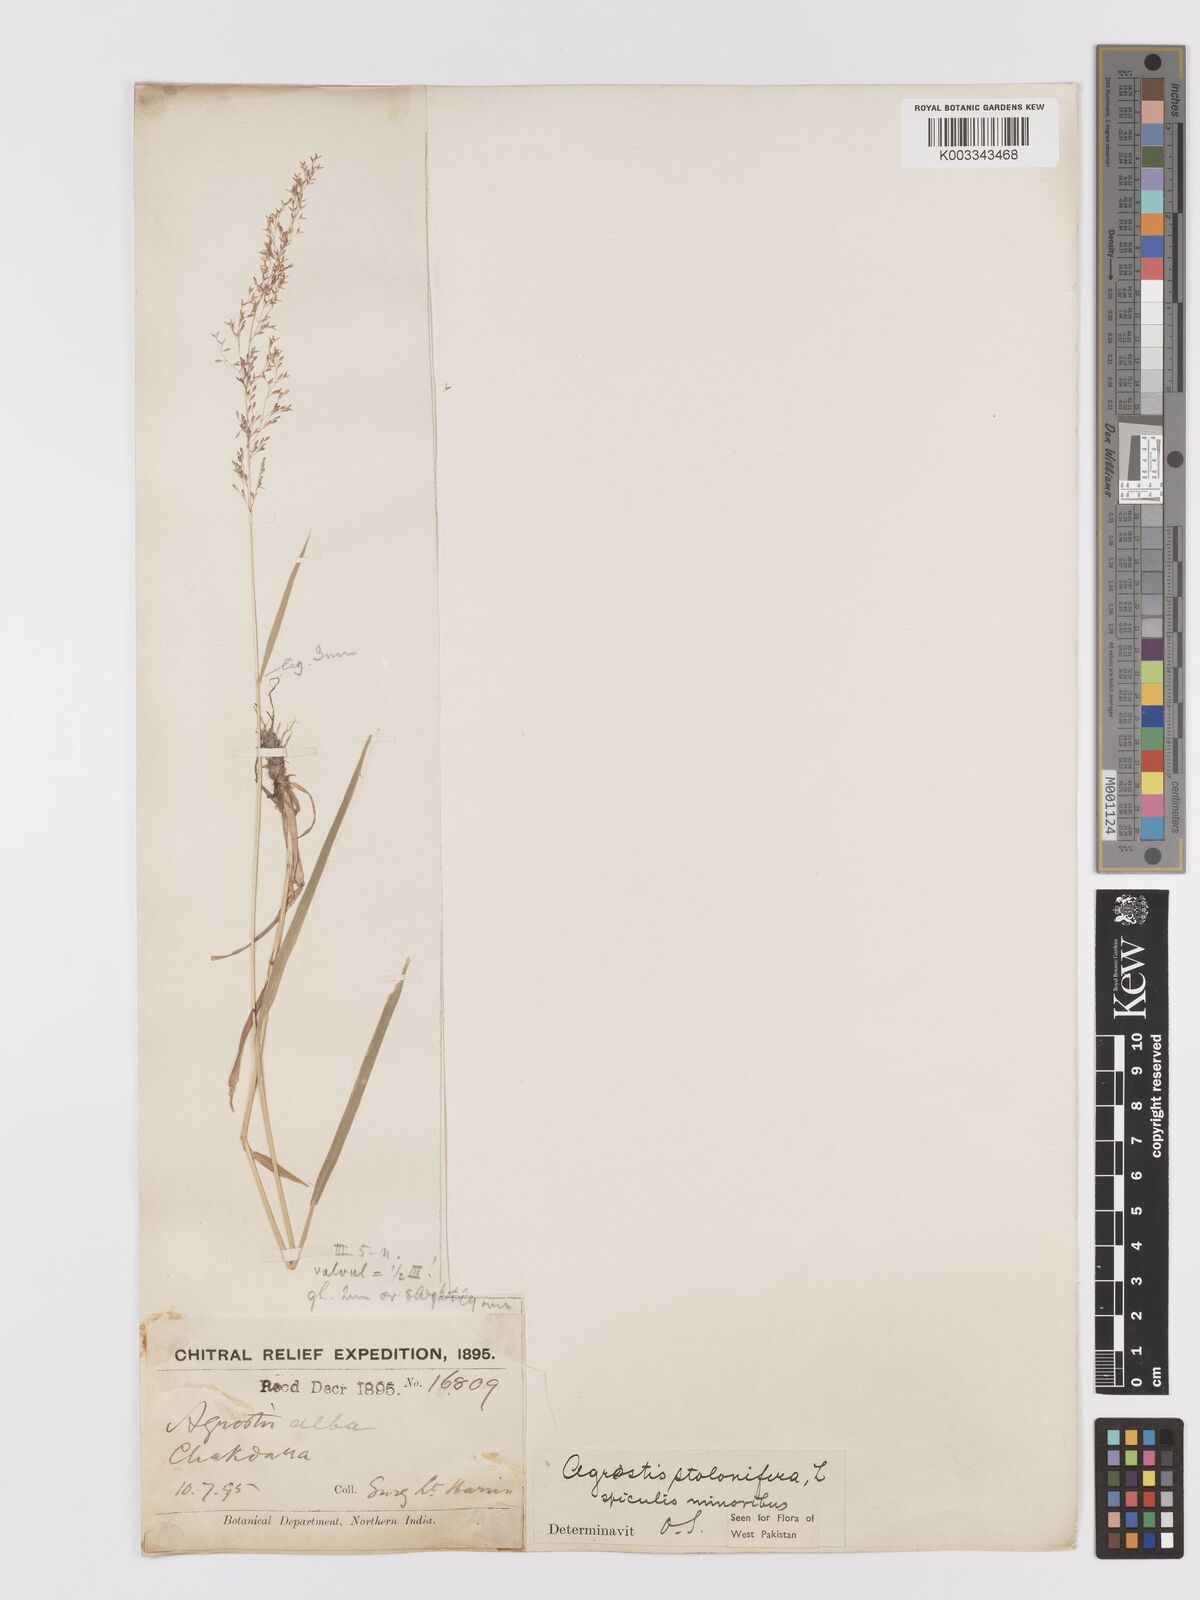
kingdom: Plantae
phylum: Tracheophyta
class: Liliopsida
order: Poales
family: Poaceae
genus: Agrostis
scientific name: Agrostis stolonifera
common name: Creeping bentgrass
